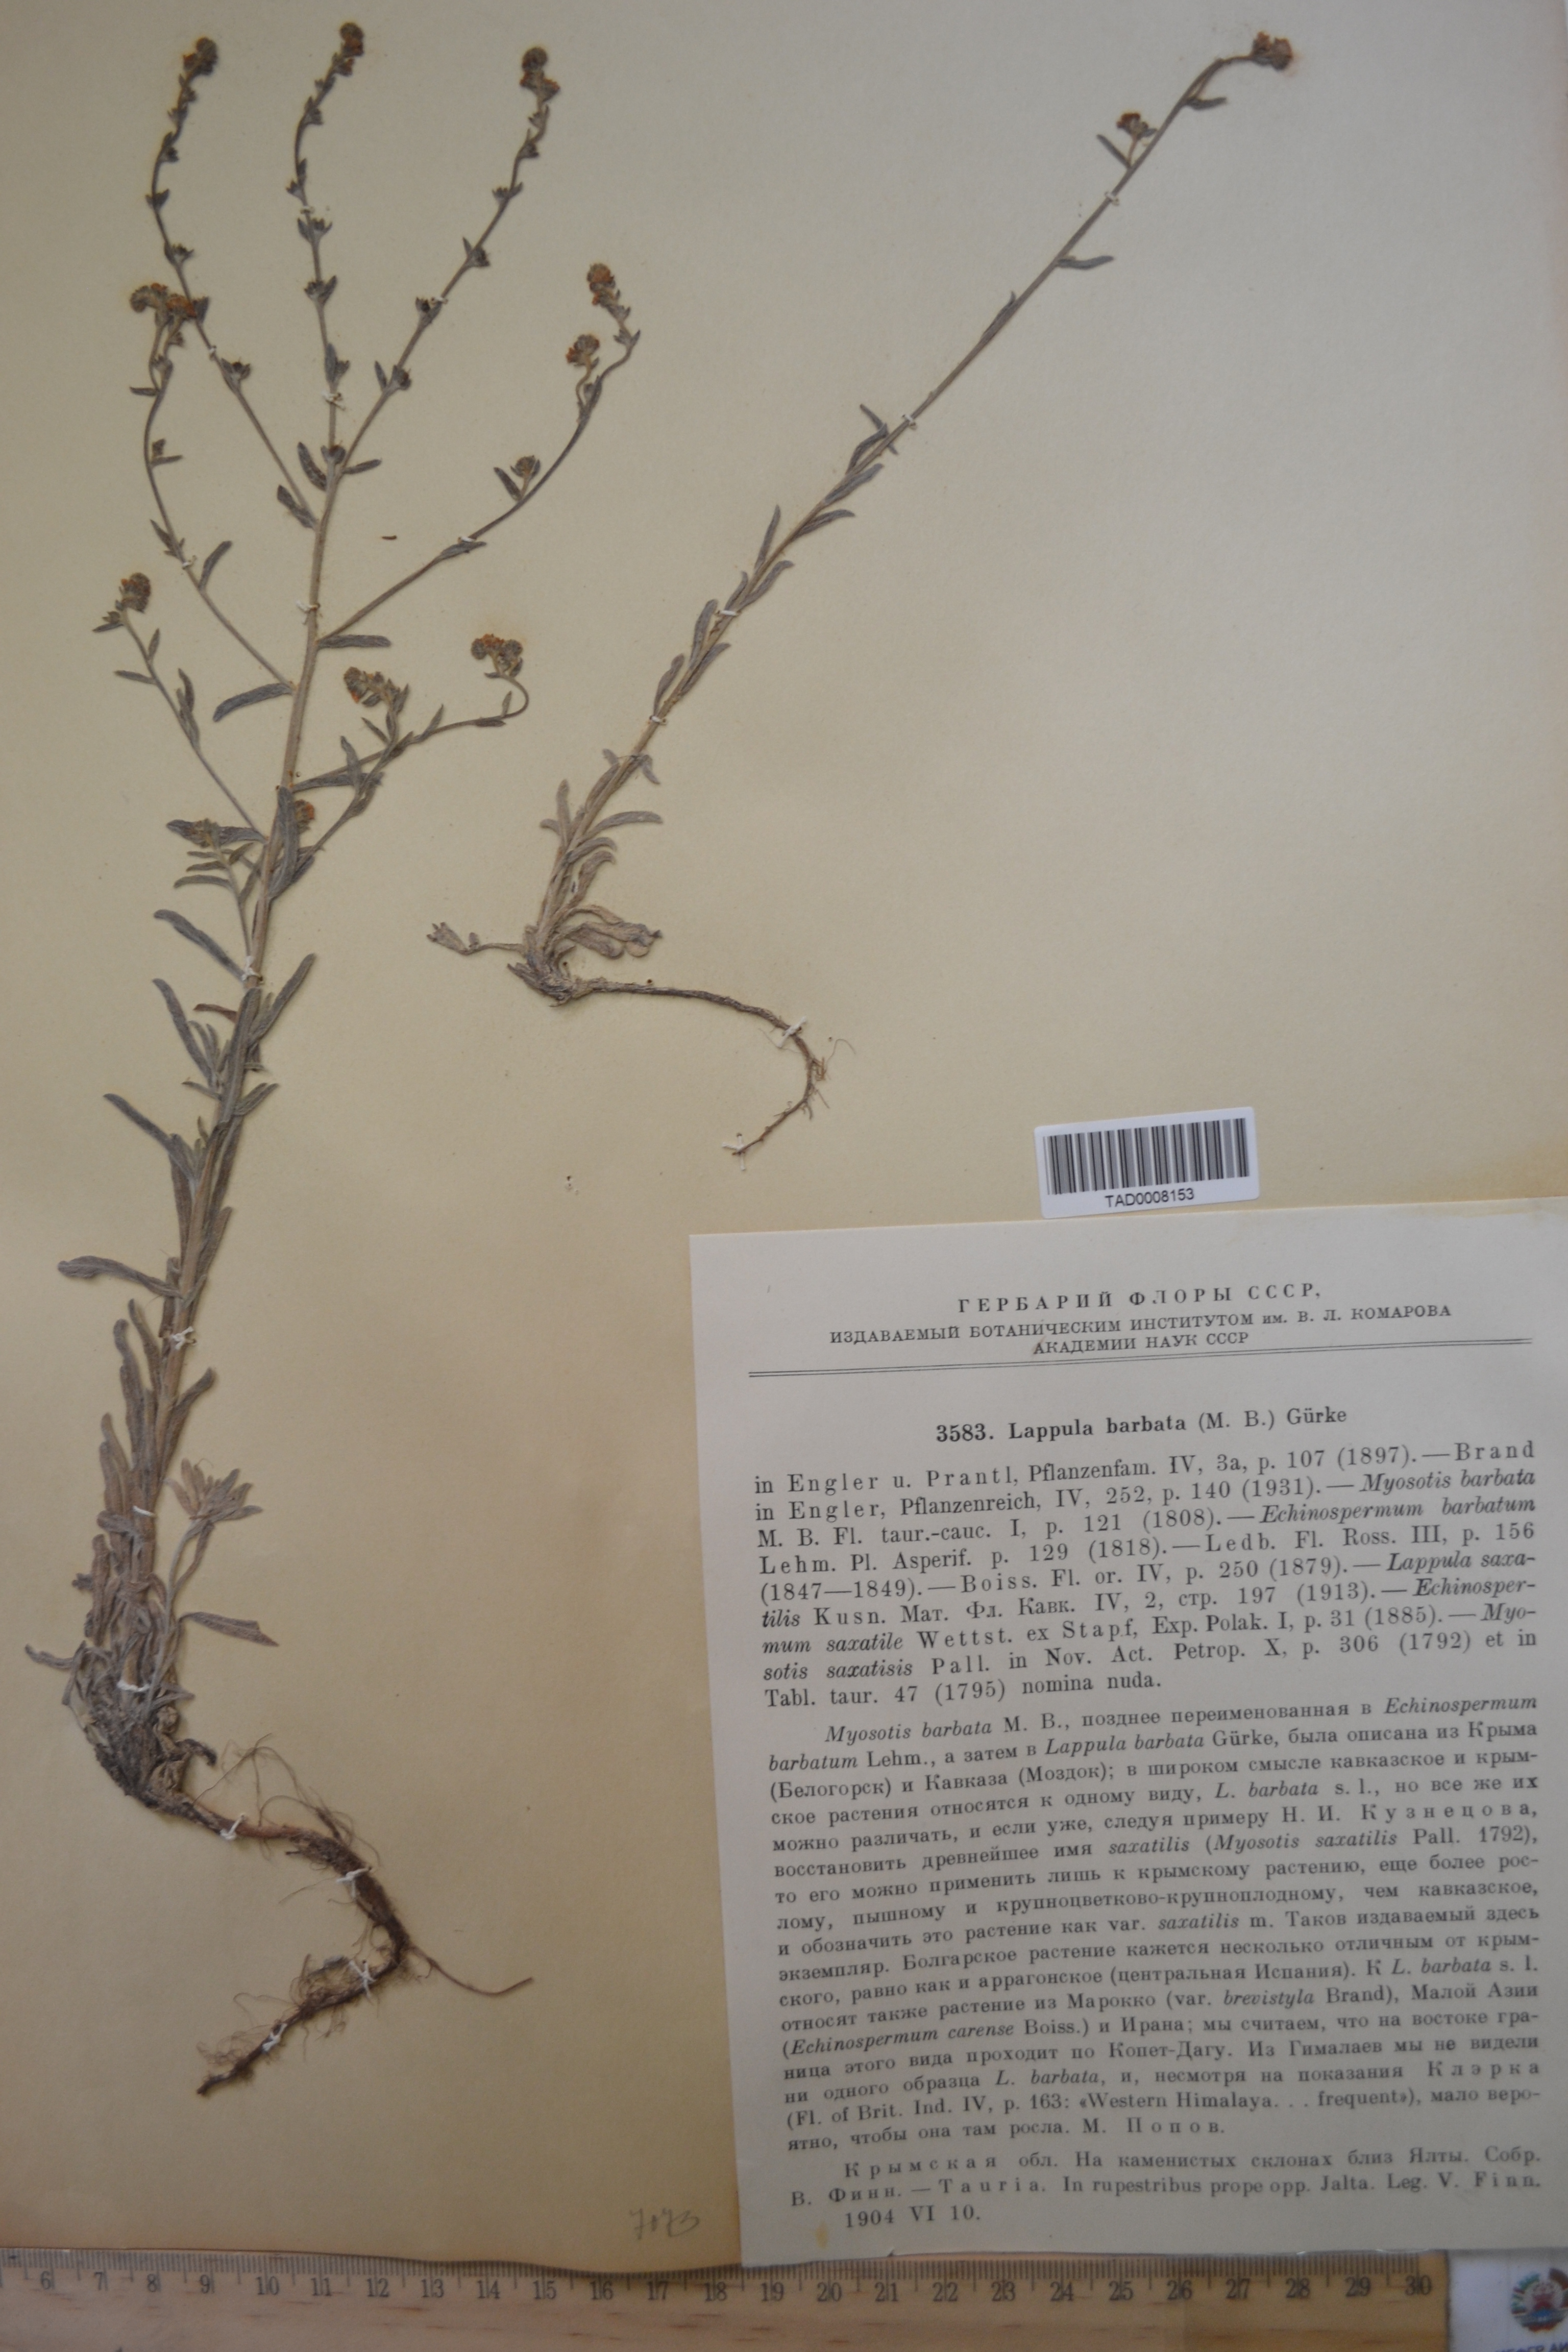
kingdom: Plantae
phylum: Tracheophyta
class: Magnoliopsida
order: Boraginales
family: Boraginaceae
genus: Lappula
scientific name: Lappula barbata
